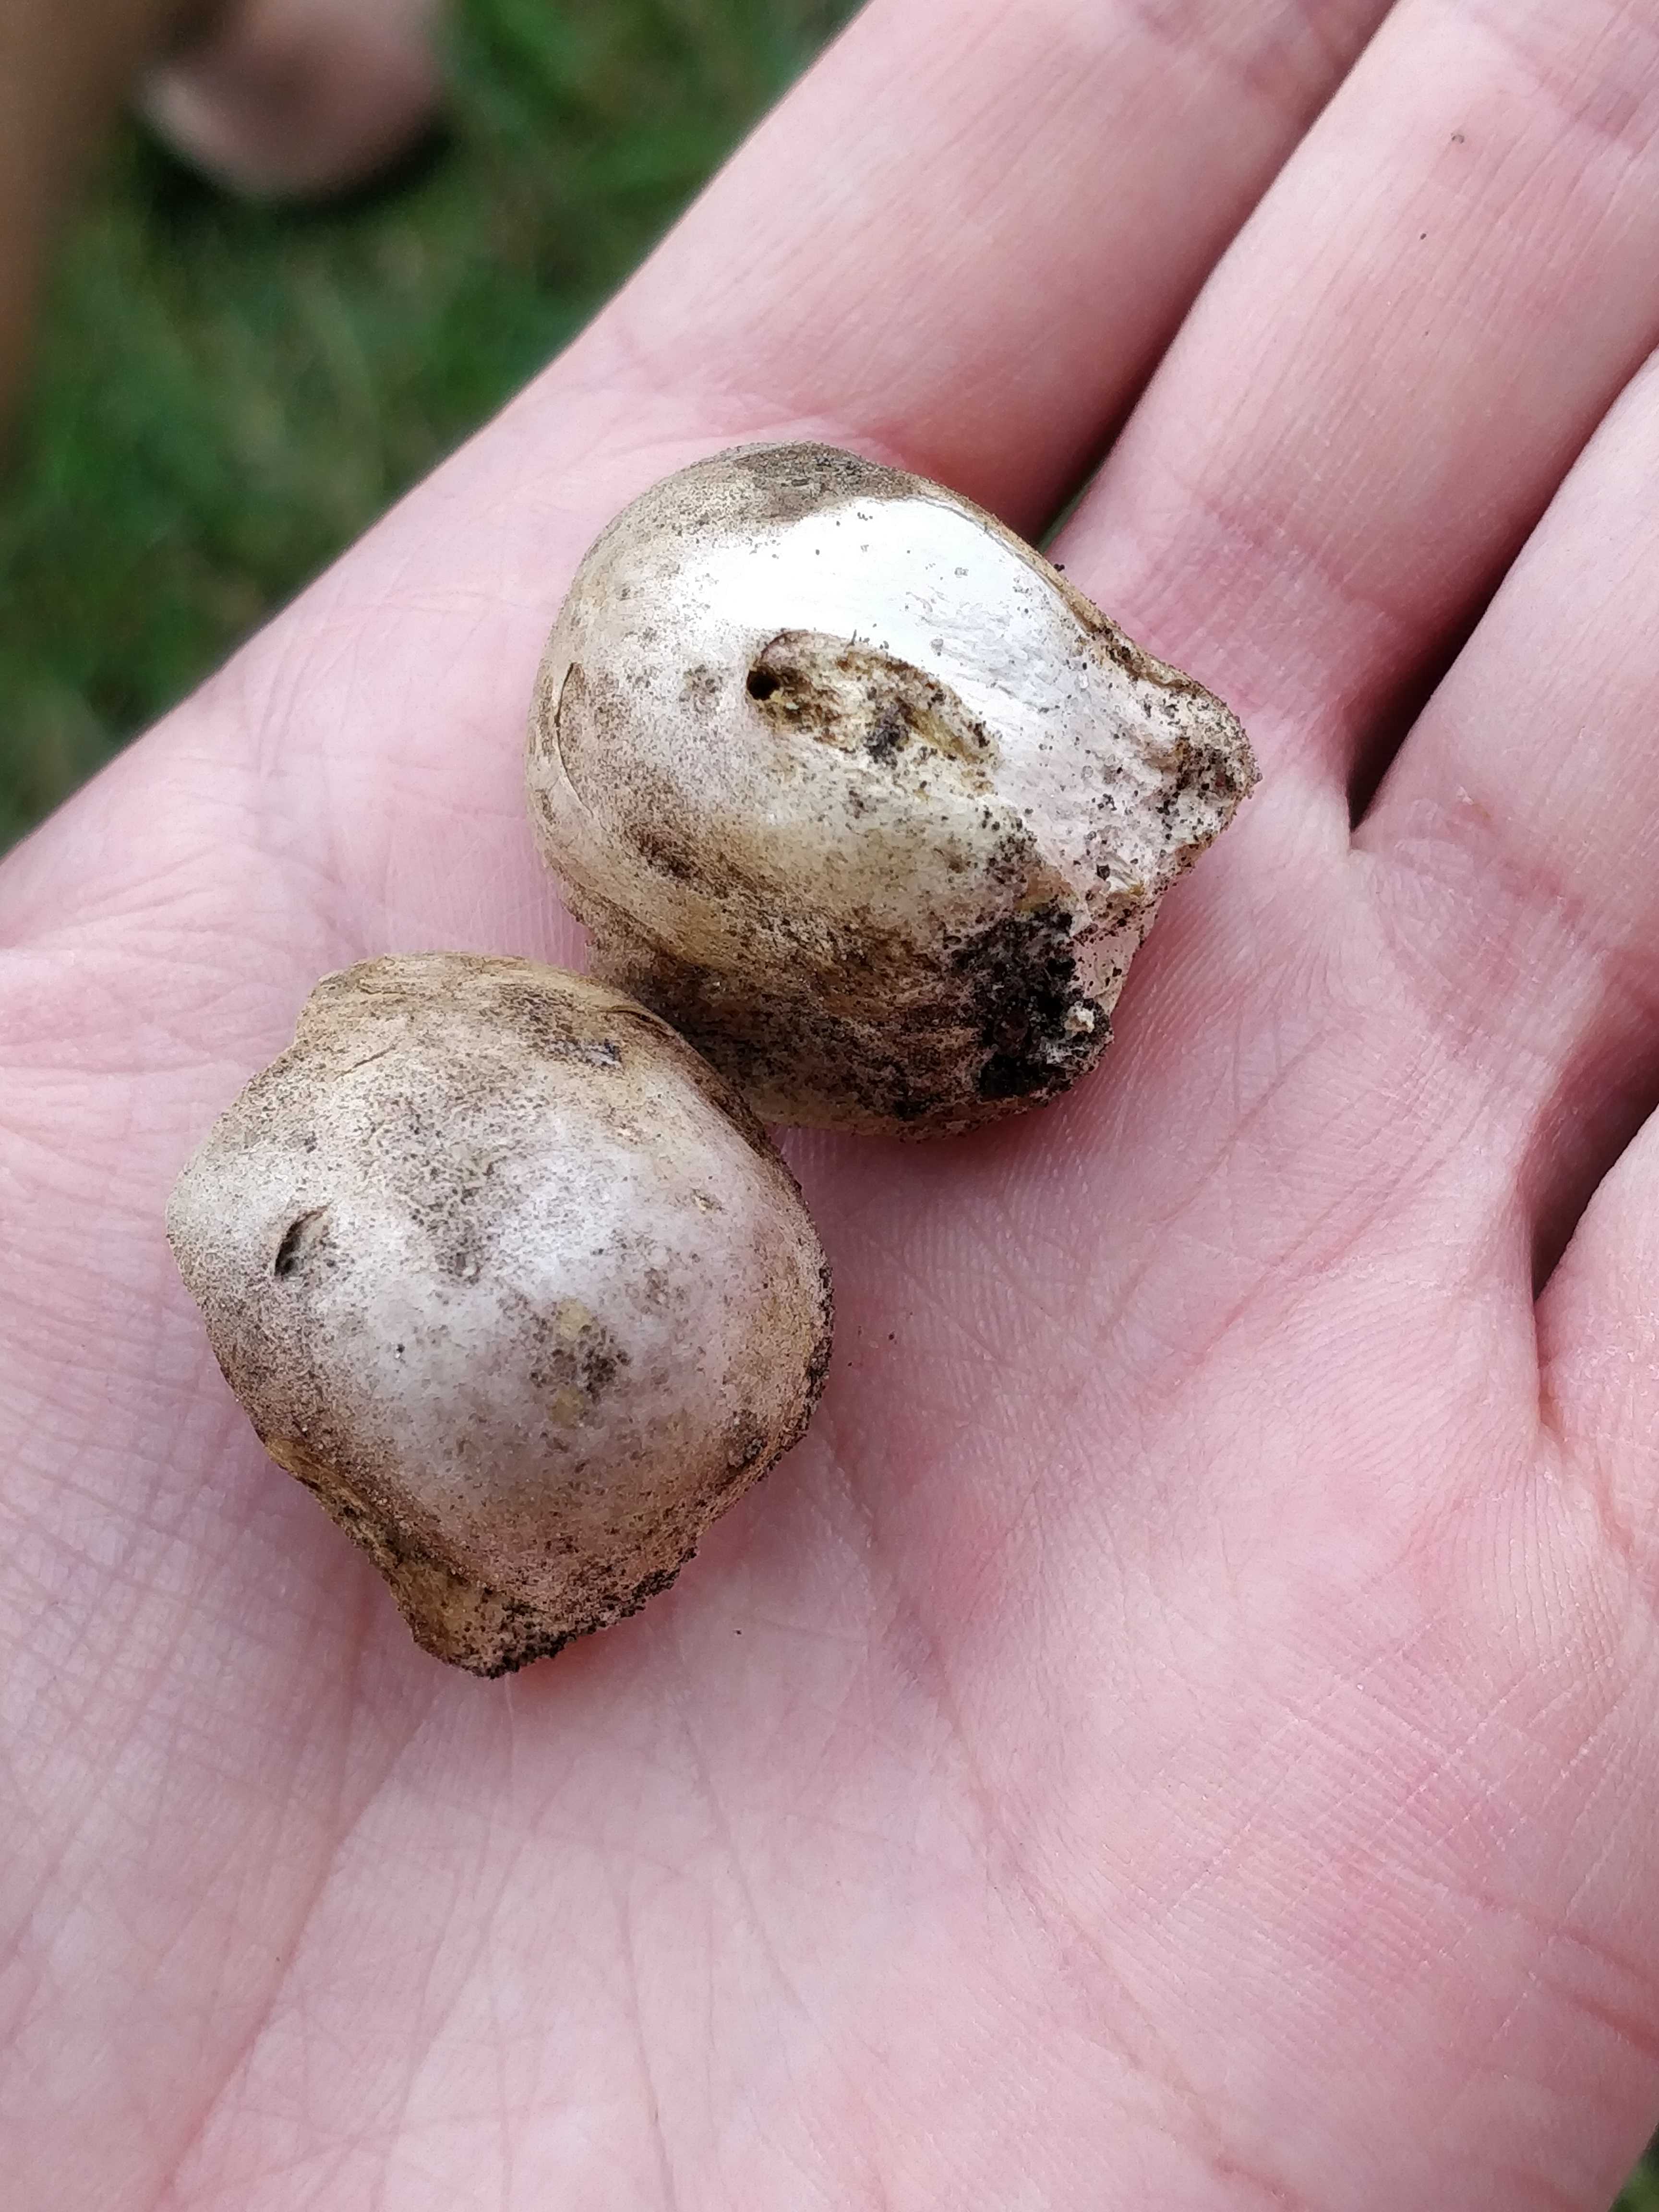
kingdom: Fungi
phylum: Basidiomycota
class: Agaricomycetes
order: Boletales
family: Sclerodermataceae
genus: Scleroderma
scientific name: Scleroderma bovista
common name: bovist-bruskbold
